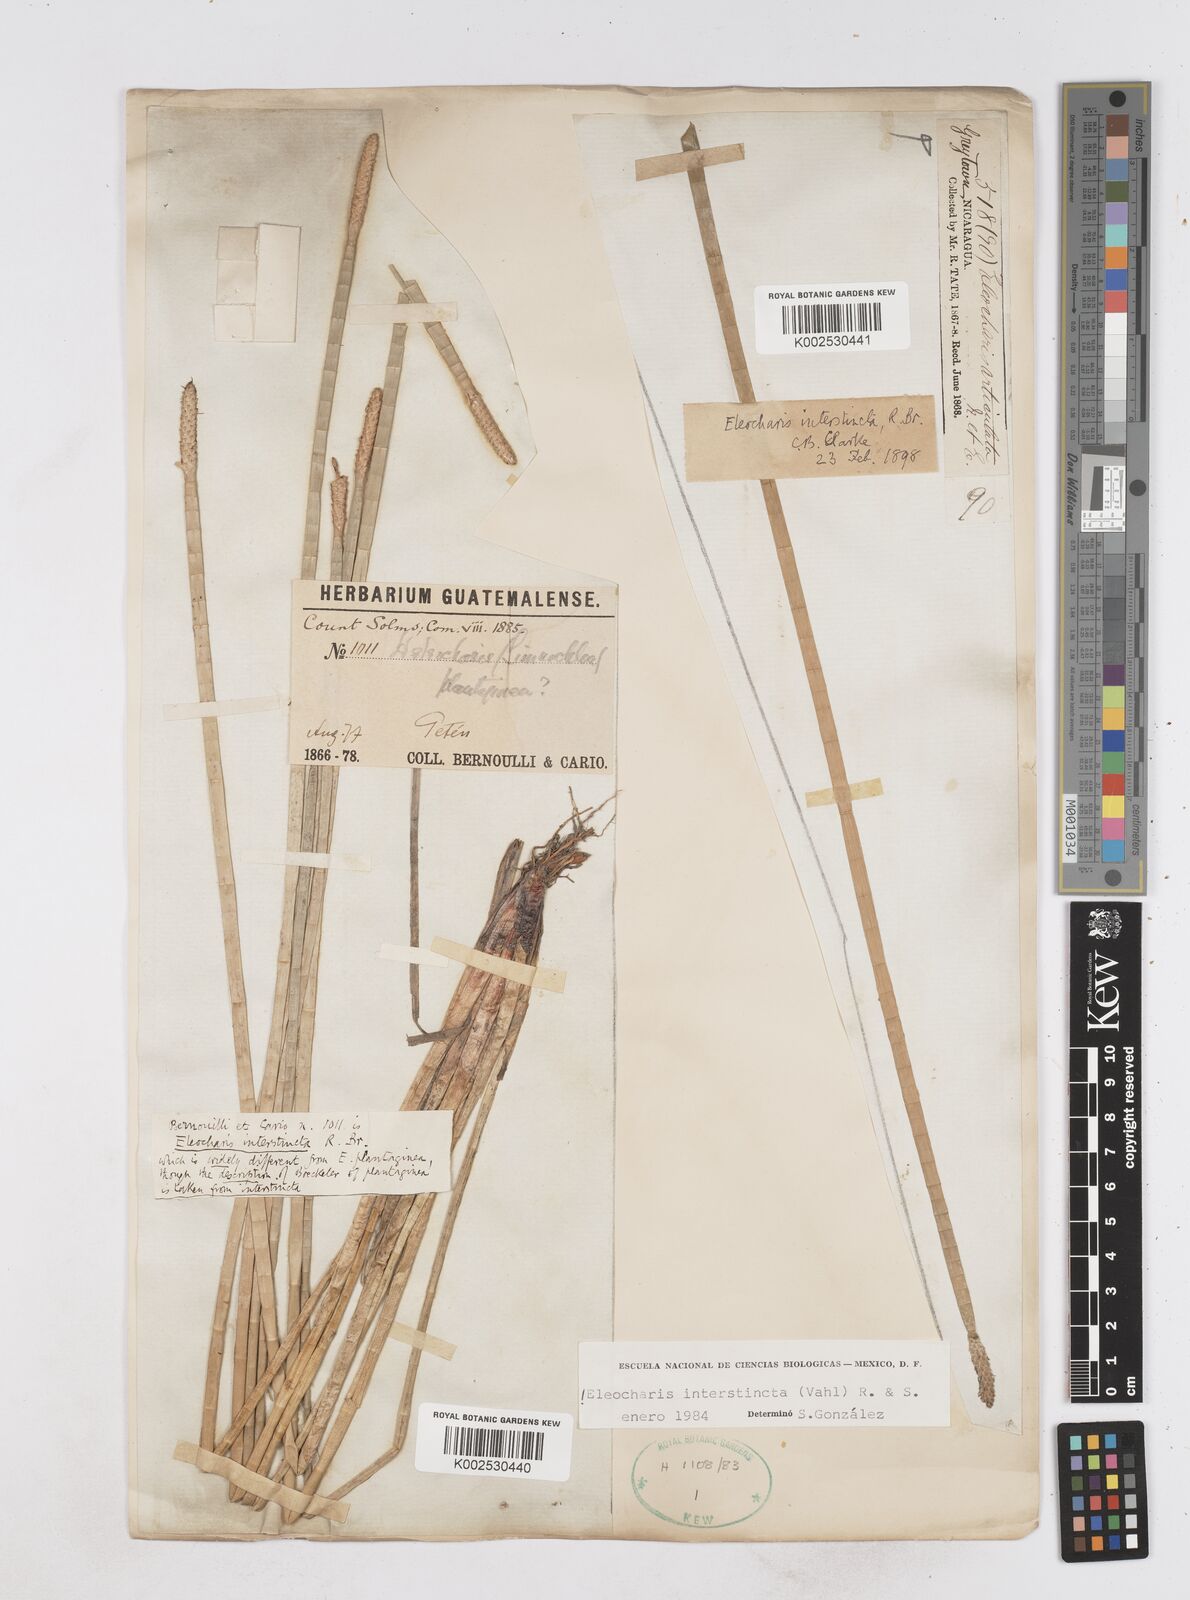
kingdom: Plantae
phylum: Tracheophyta
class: Liliopsida
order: Poales
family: Cyperaceae
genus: Eleocharis
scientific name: Eleocharis interstincta
